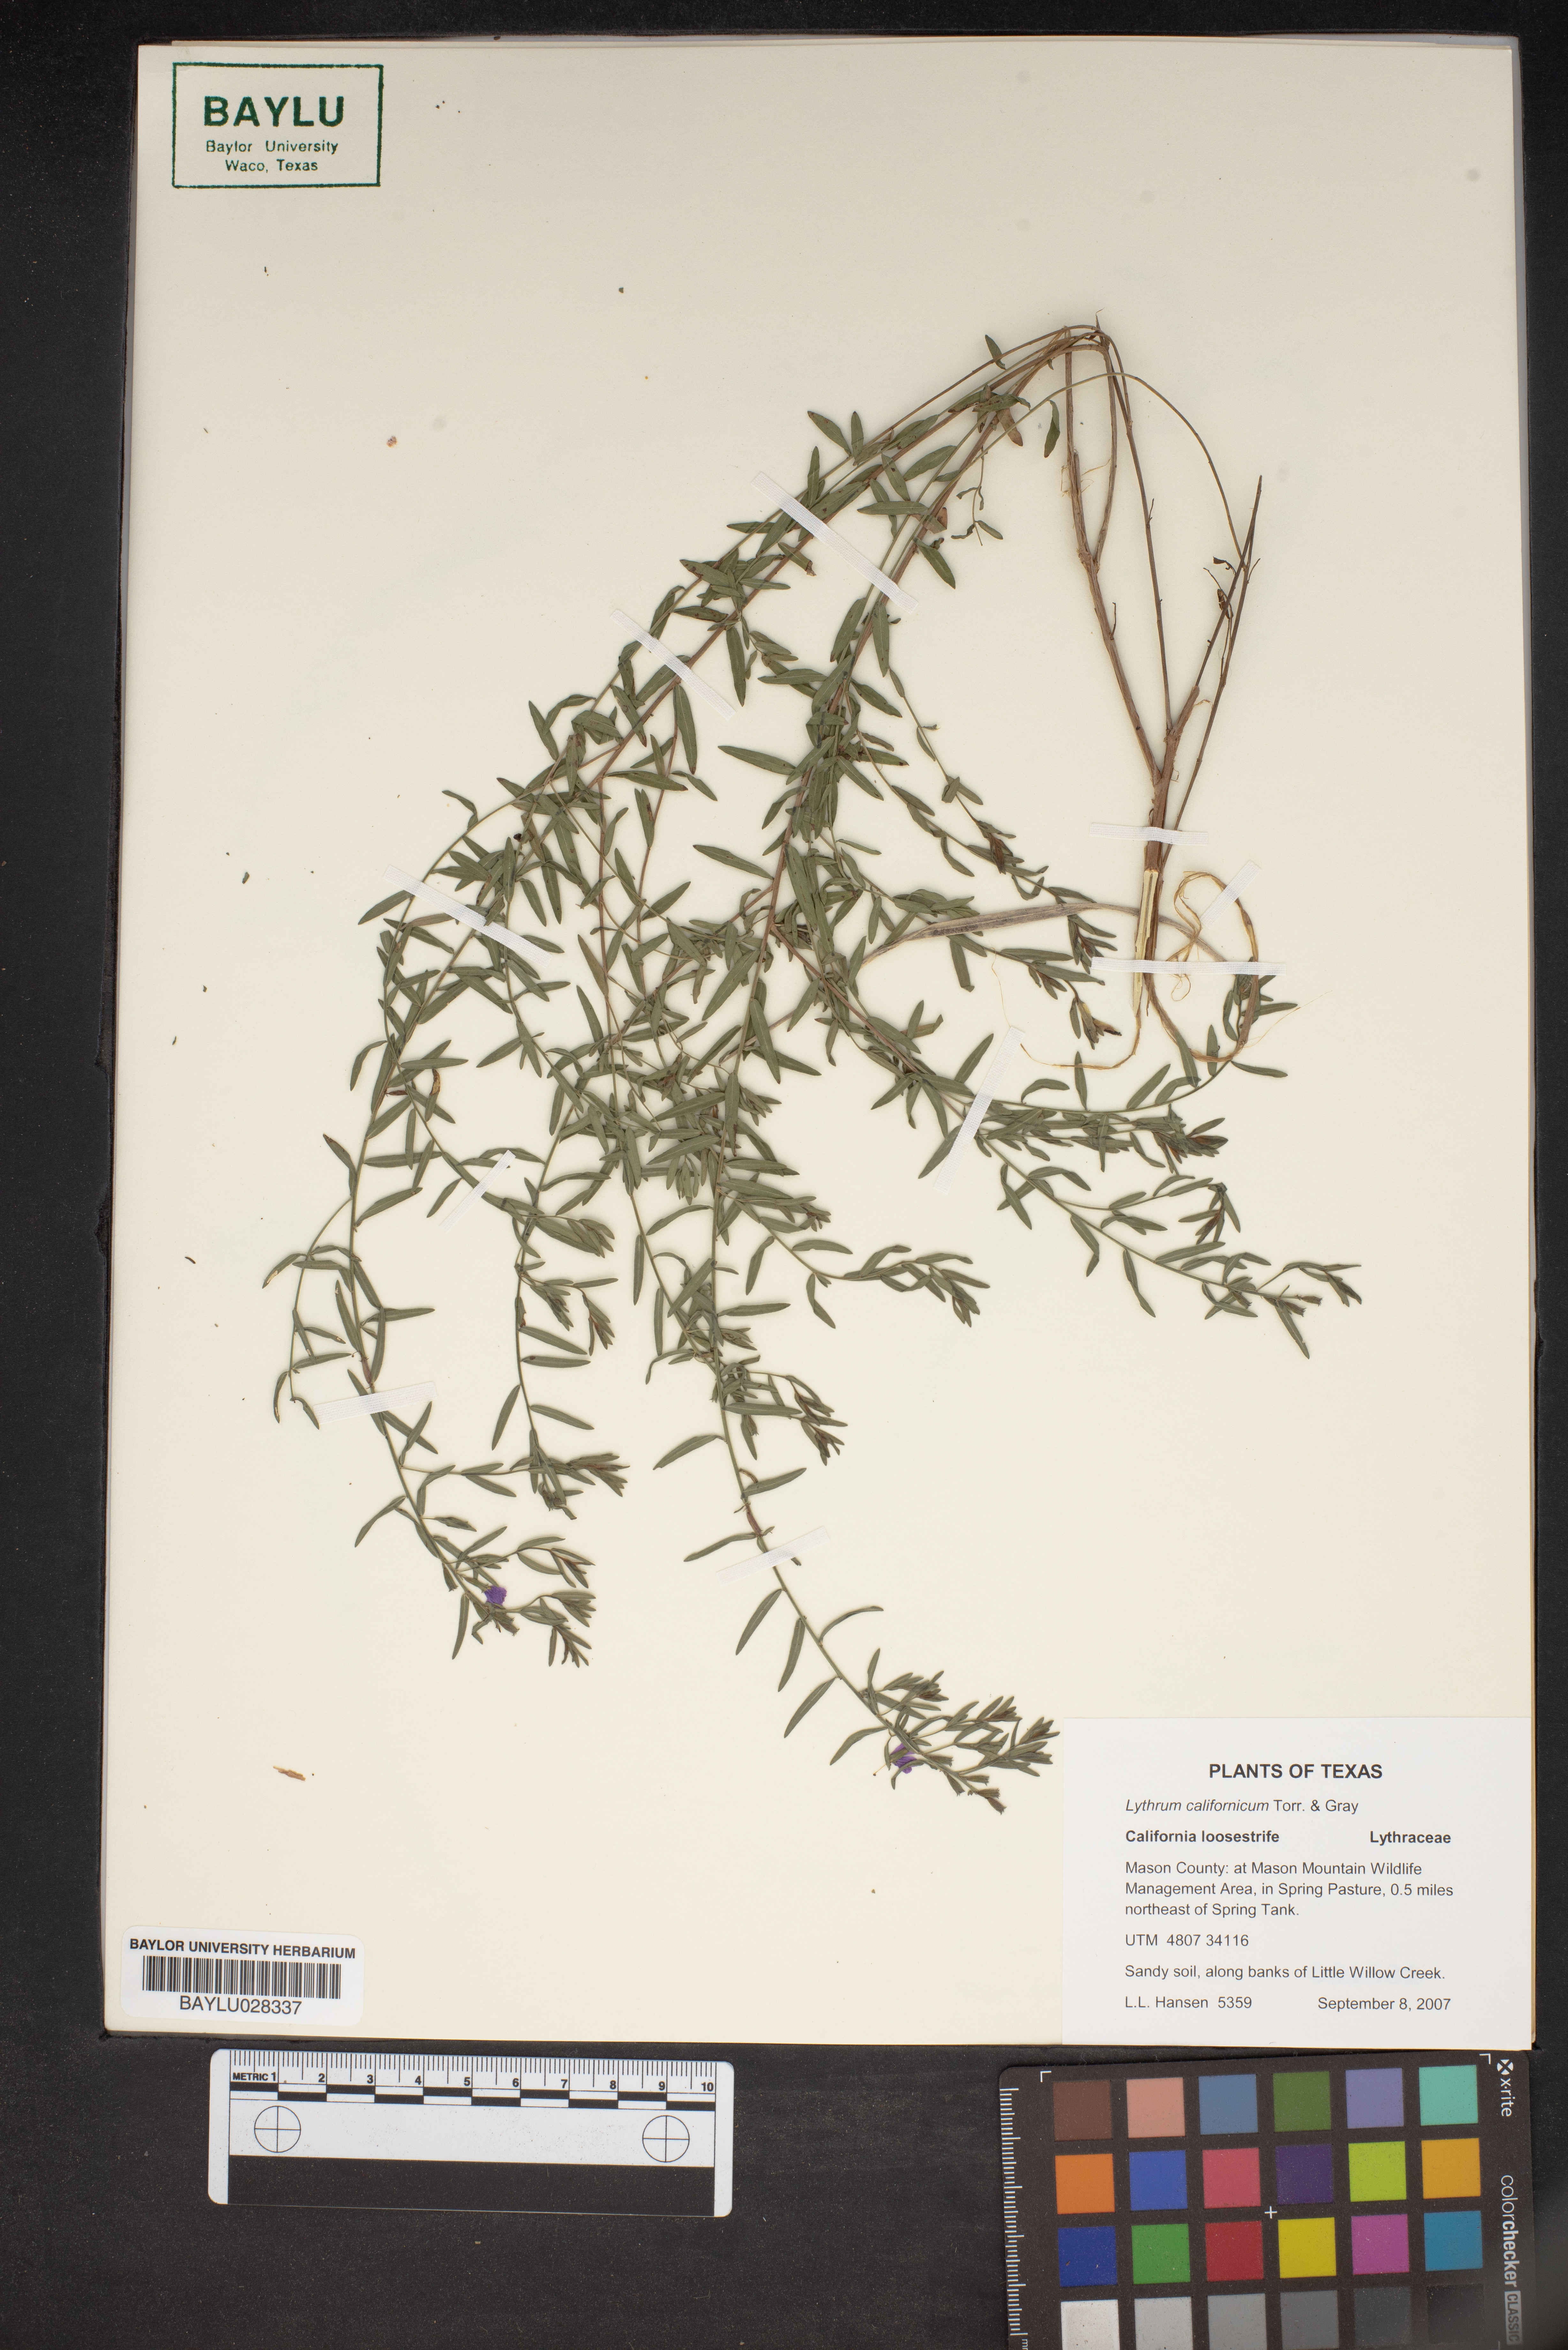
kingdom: Plantae
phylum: Tracheophyta
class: Magnoliopsida
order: Myrtales
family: Lythraceae
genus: Lythrum
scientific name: Lythrum californicum
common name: California loosestrife
